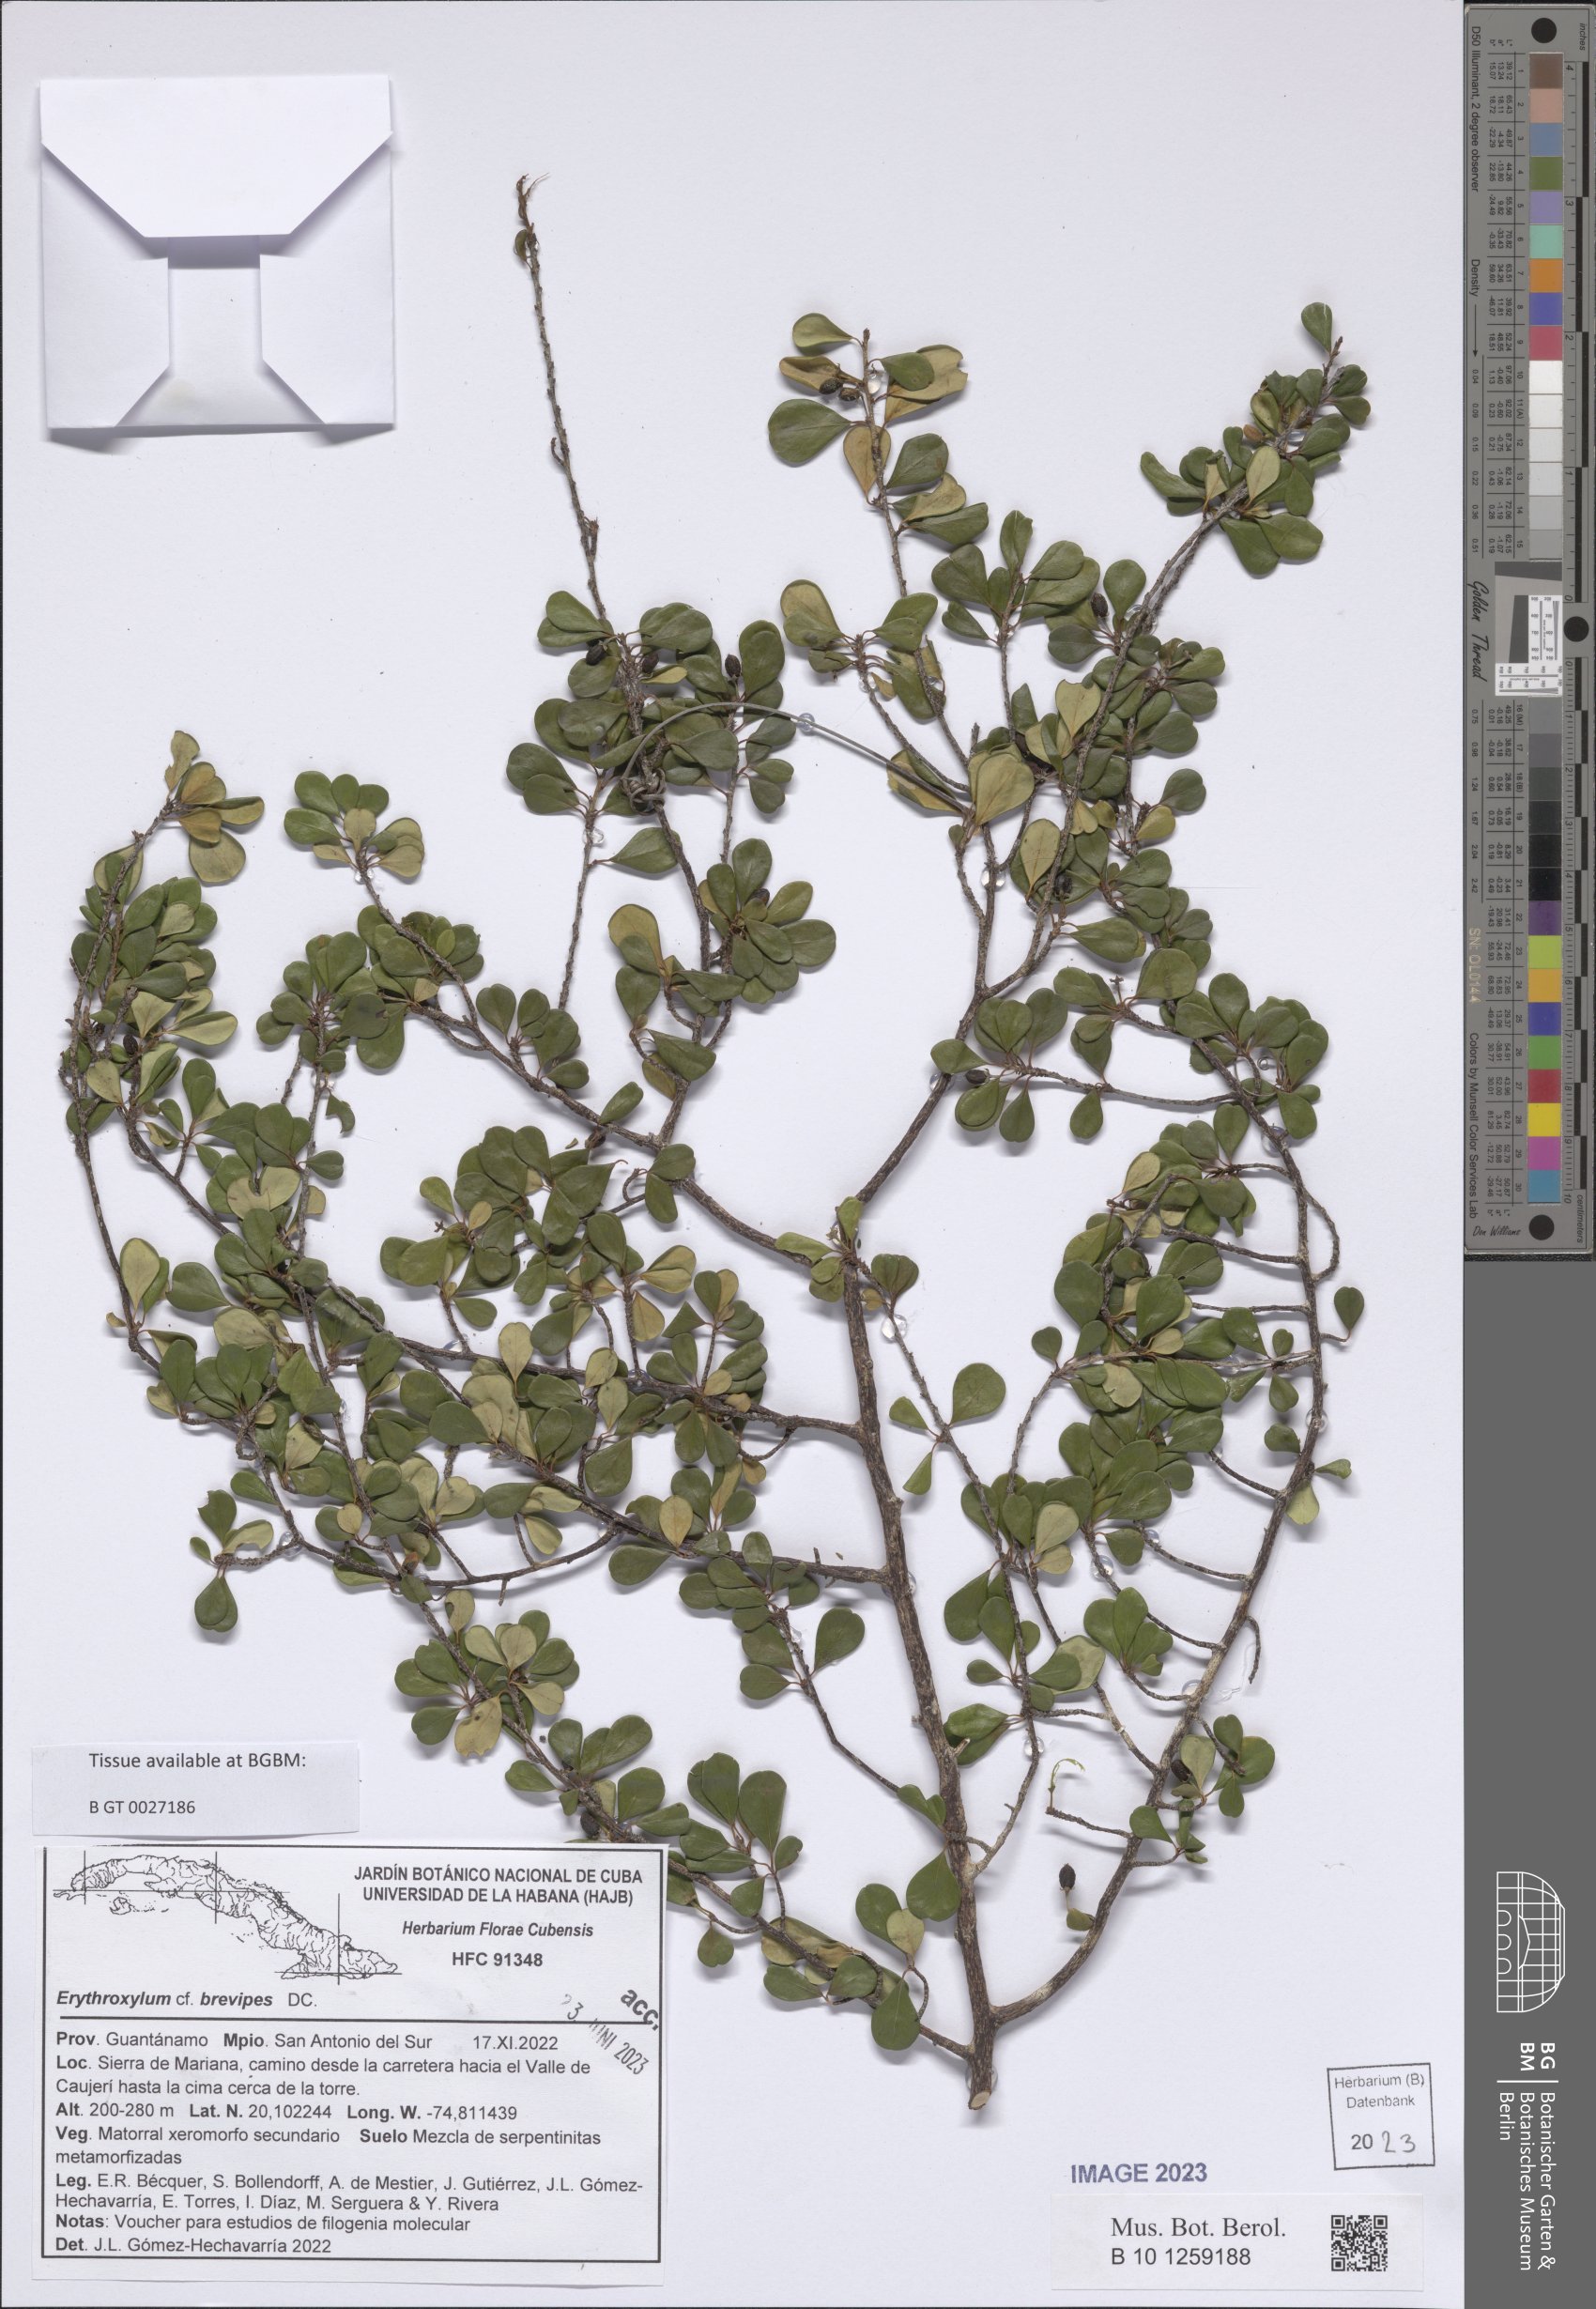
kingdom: Plantae
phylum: Tracheophyta
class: Magnoliopsida
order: Malpighiales
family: Erythroxylaceae
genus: Erythroxylum
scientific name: Erythroxylum brevipes
